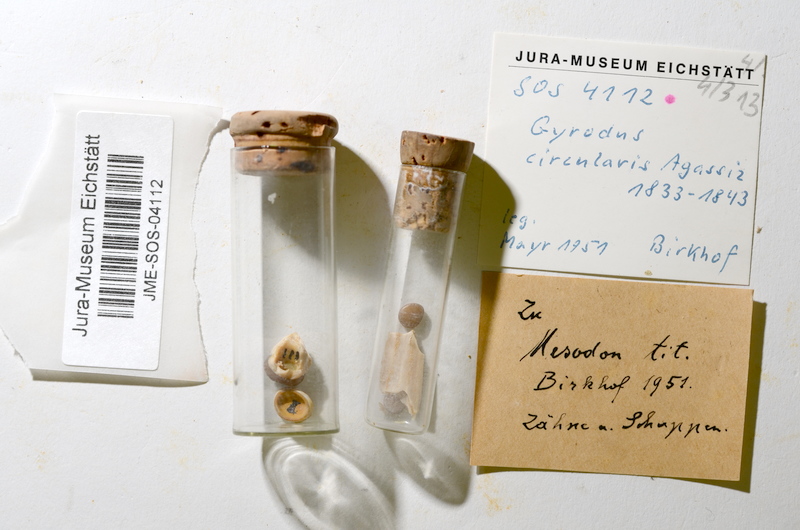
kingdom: Animalia
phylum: Chordata
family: Gyrodontidae
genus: Gyrodus
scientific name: Gyrodus circularis
